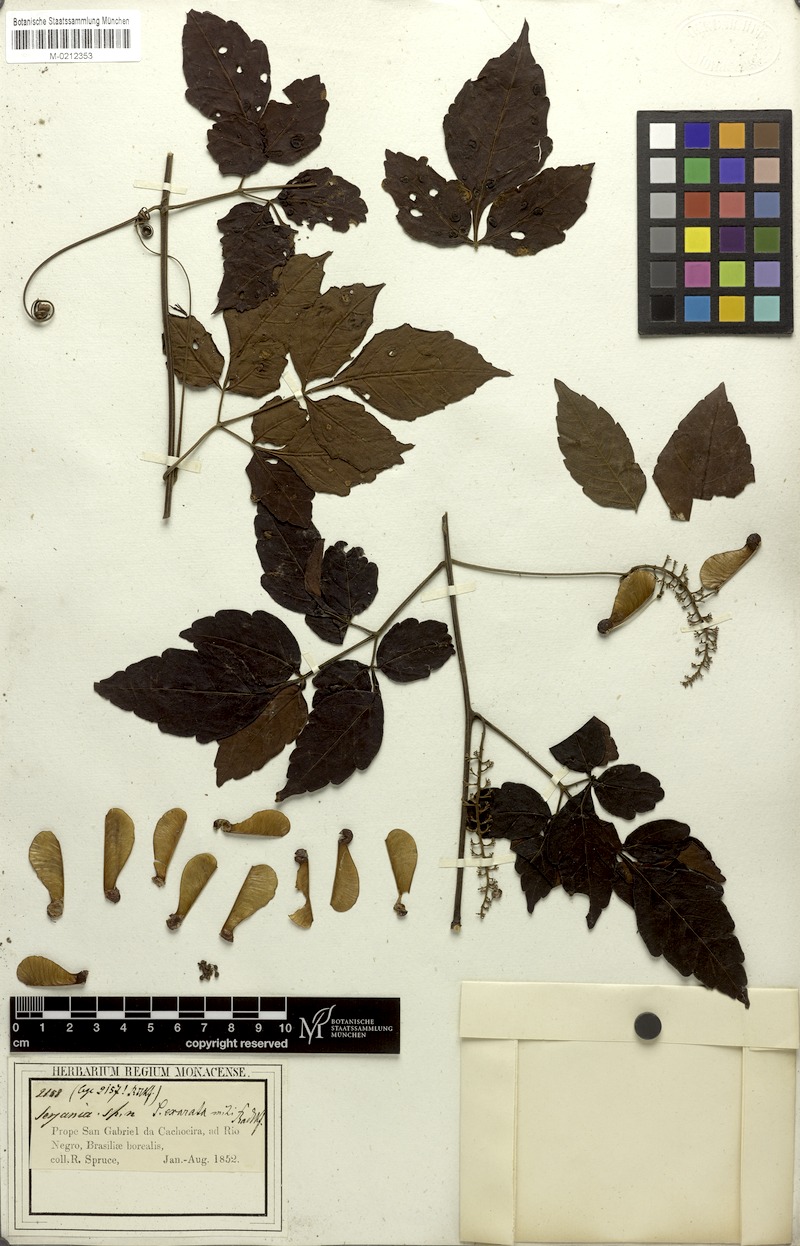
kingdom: Plantae
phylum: Tracheophyta
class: Magnoliopsida
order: Sapindales
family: Sapindaceae
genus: Serjania
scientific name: Serjania membranacea
